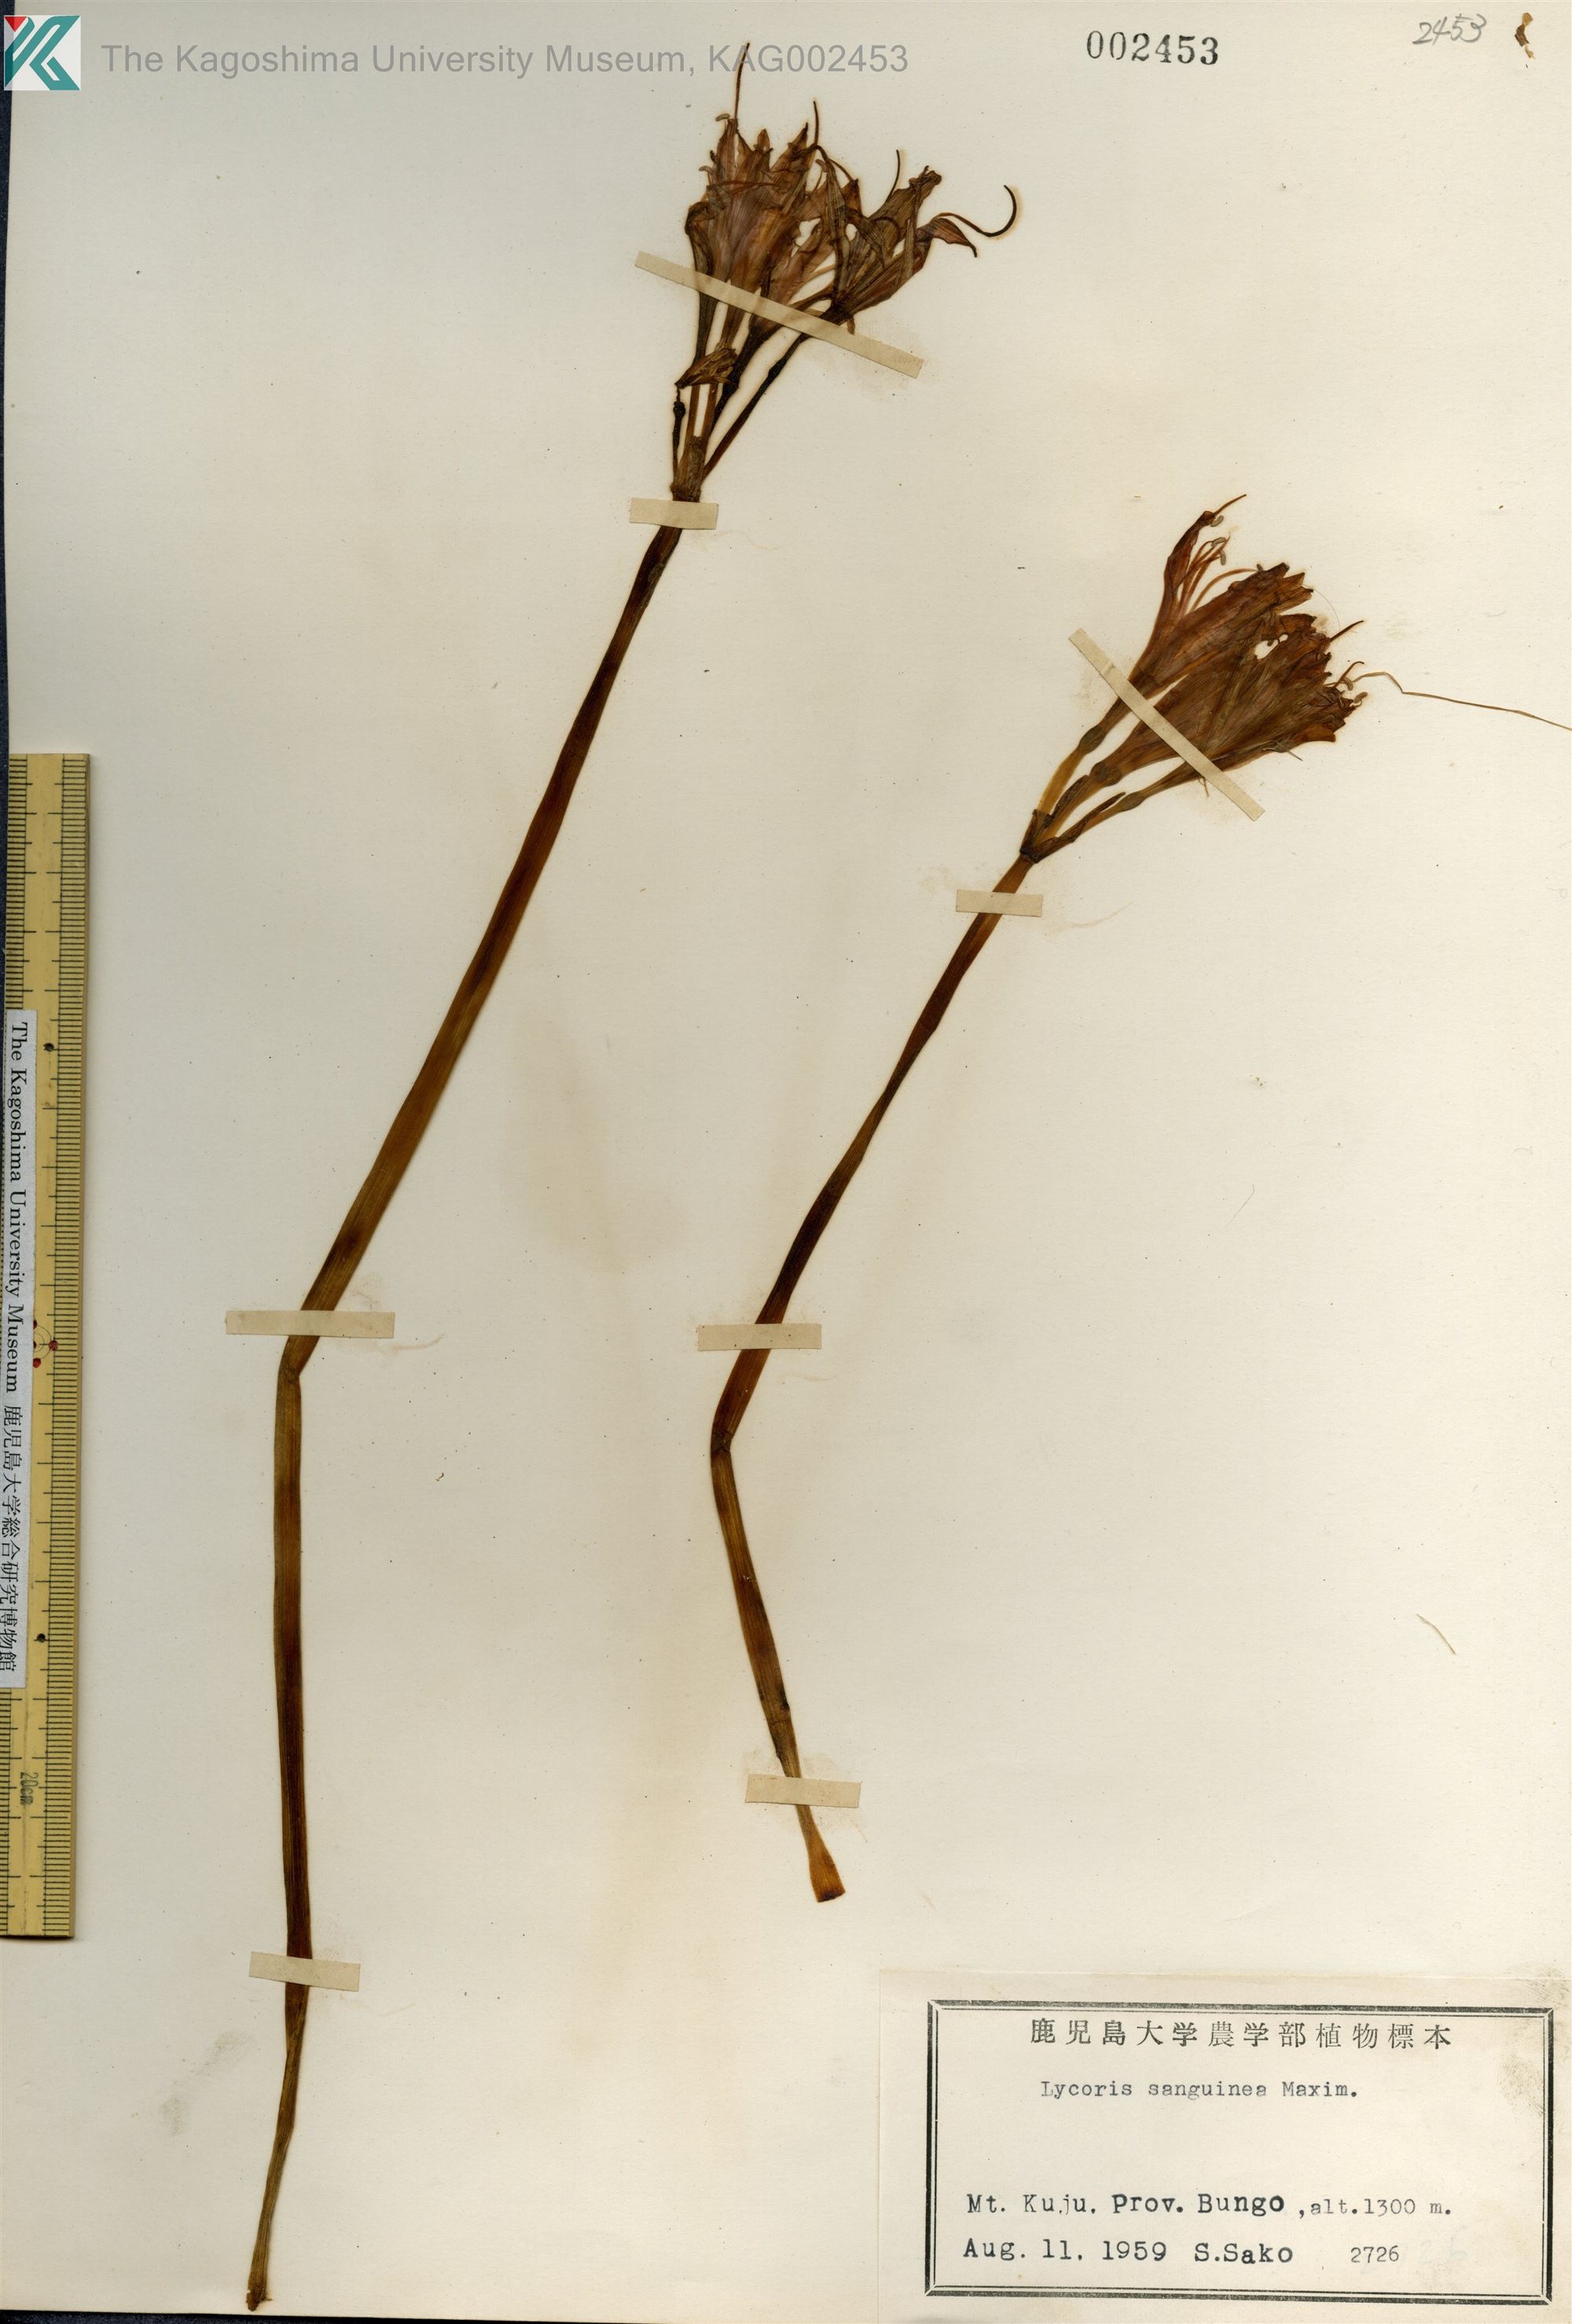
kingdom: Plantae
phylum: Tracheophyta
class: Liliopsida
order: Asparagales
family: Amaryllidaceae
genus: Lycoris
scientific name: Lycoris sanguinea
